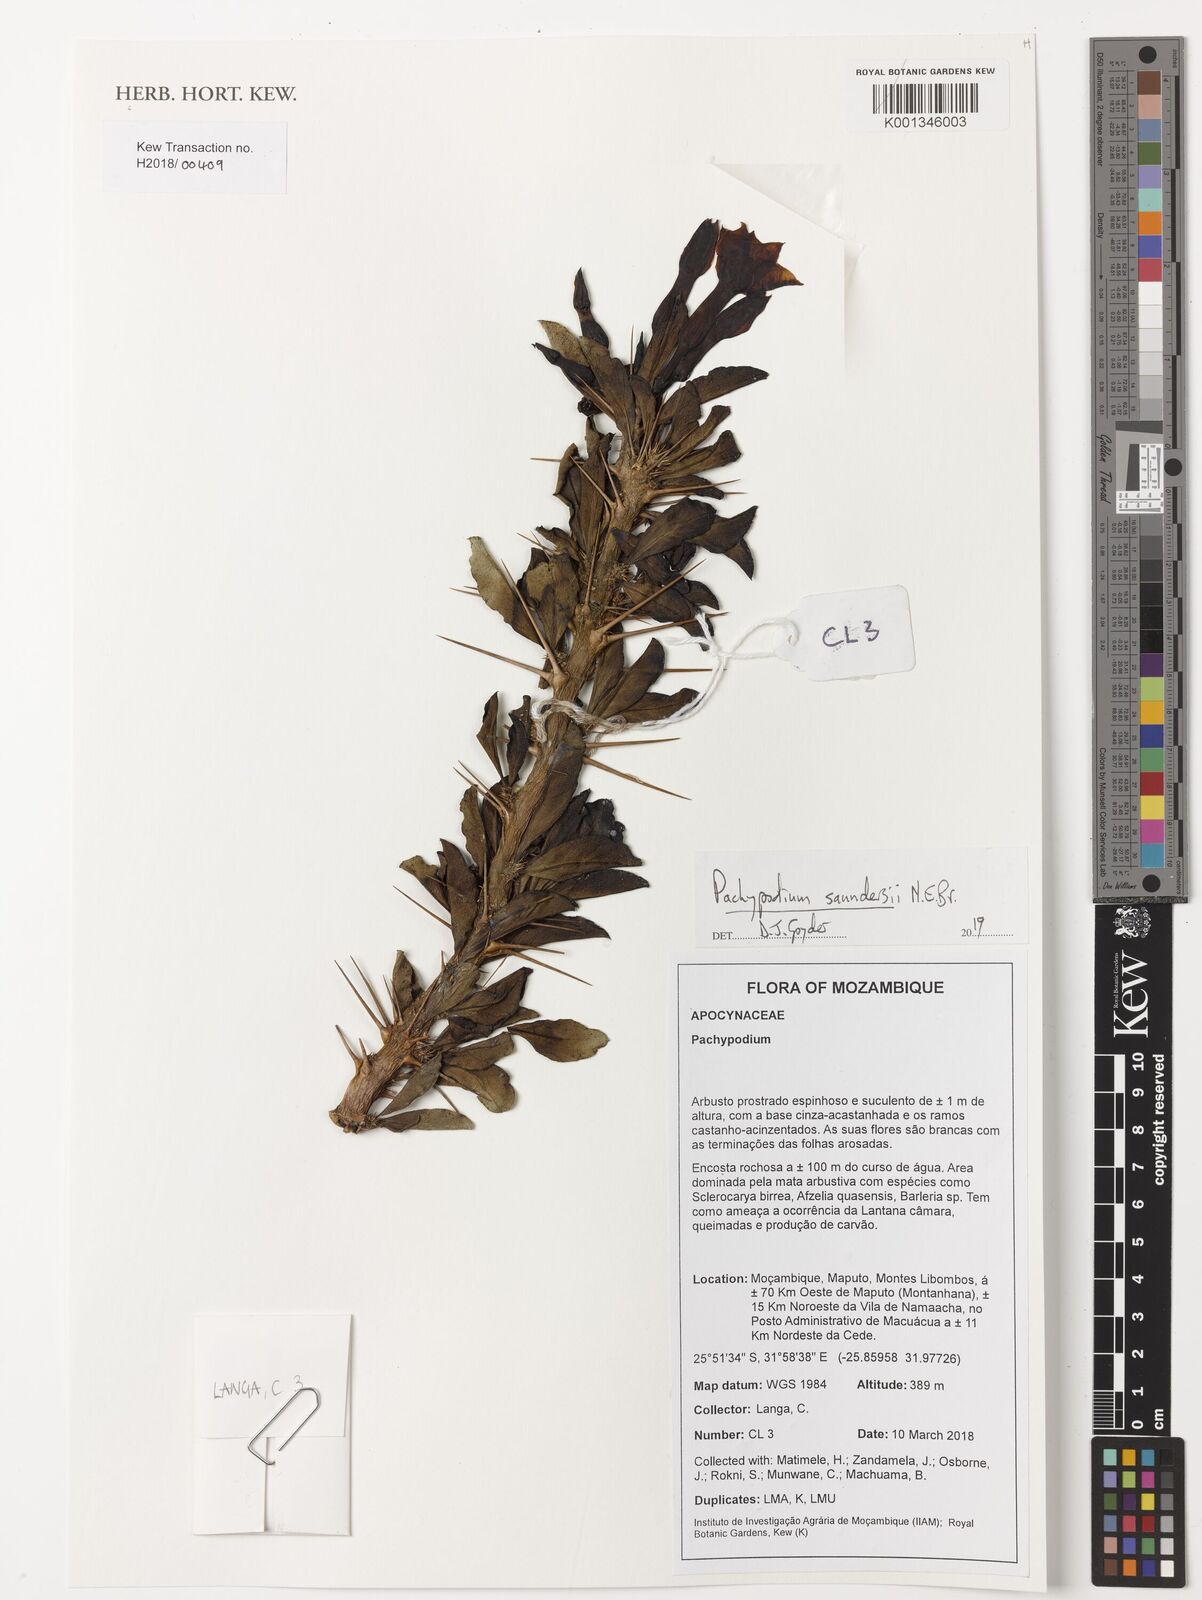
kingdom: Plantae
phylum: Tracheophyta
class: Magnoliopsida
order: Gentianales
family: Apocynaceae
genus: Pachypodium
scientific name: Pachypodium saundersii
